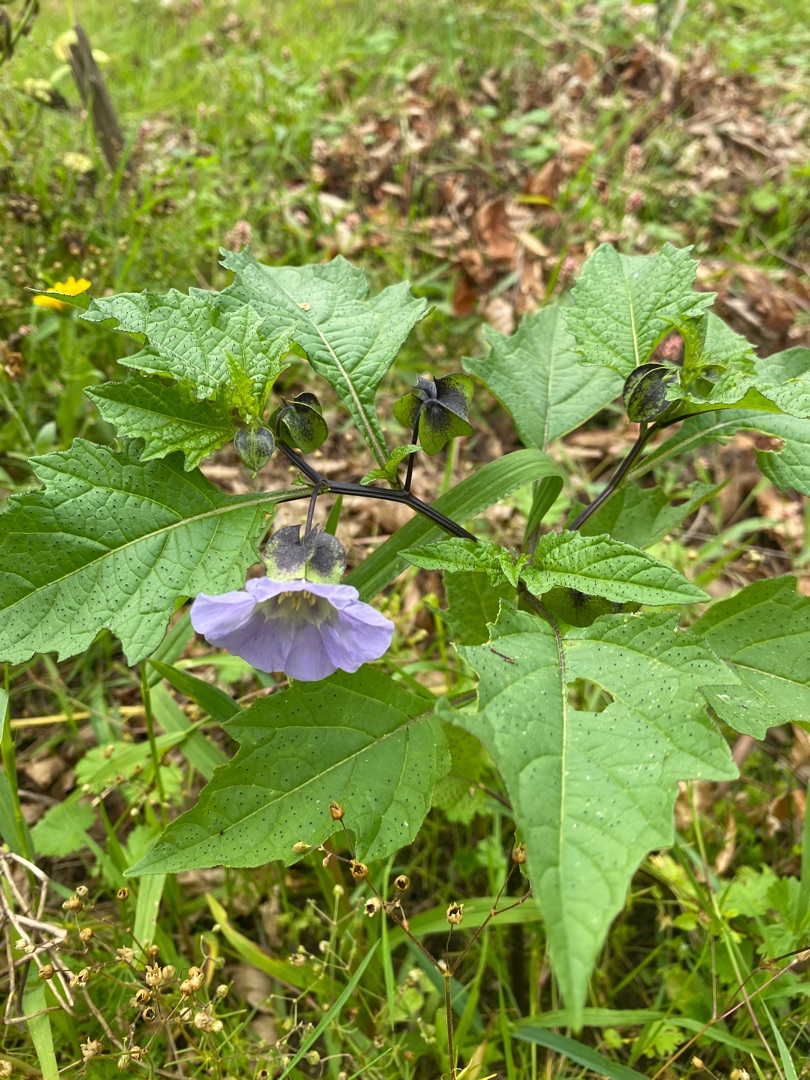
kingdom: Plantae
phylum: Tracheophyta
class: Magnoliopsida
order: Solanales
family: Solanaceae
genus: Nicandra
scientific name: Nicandra physalodes
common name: Kantbæger
